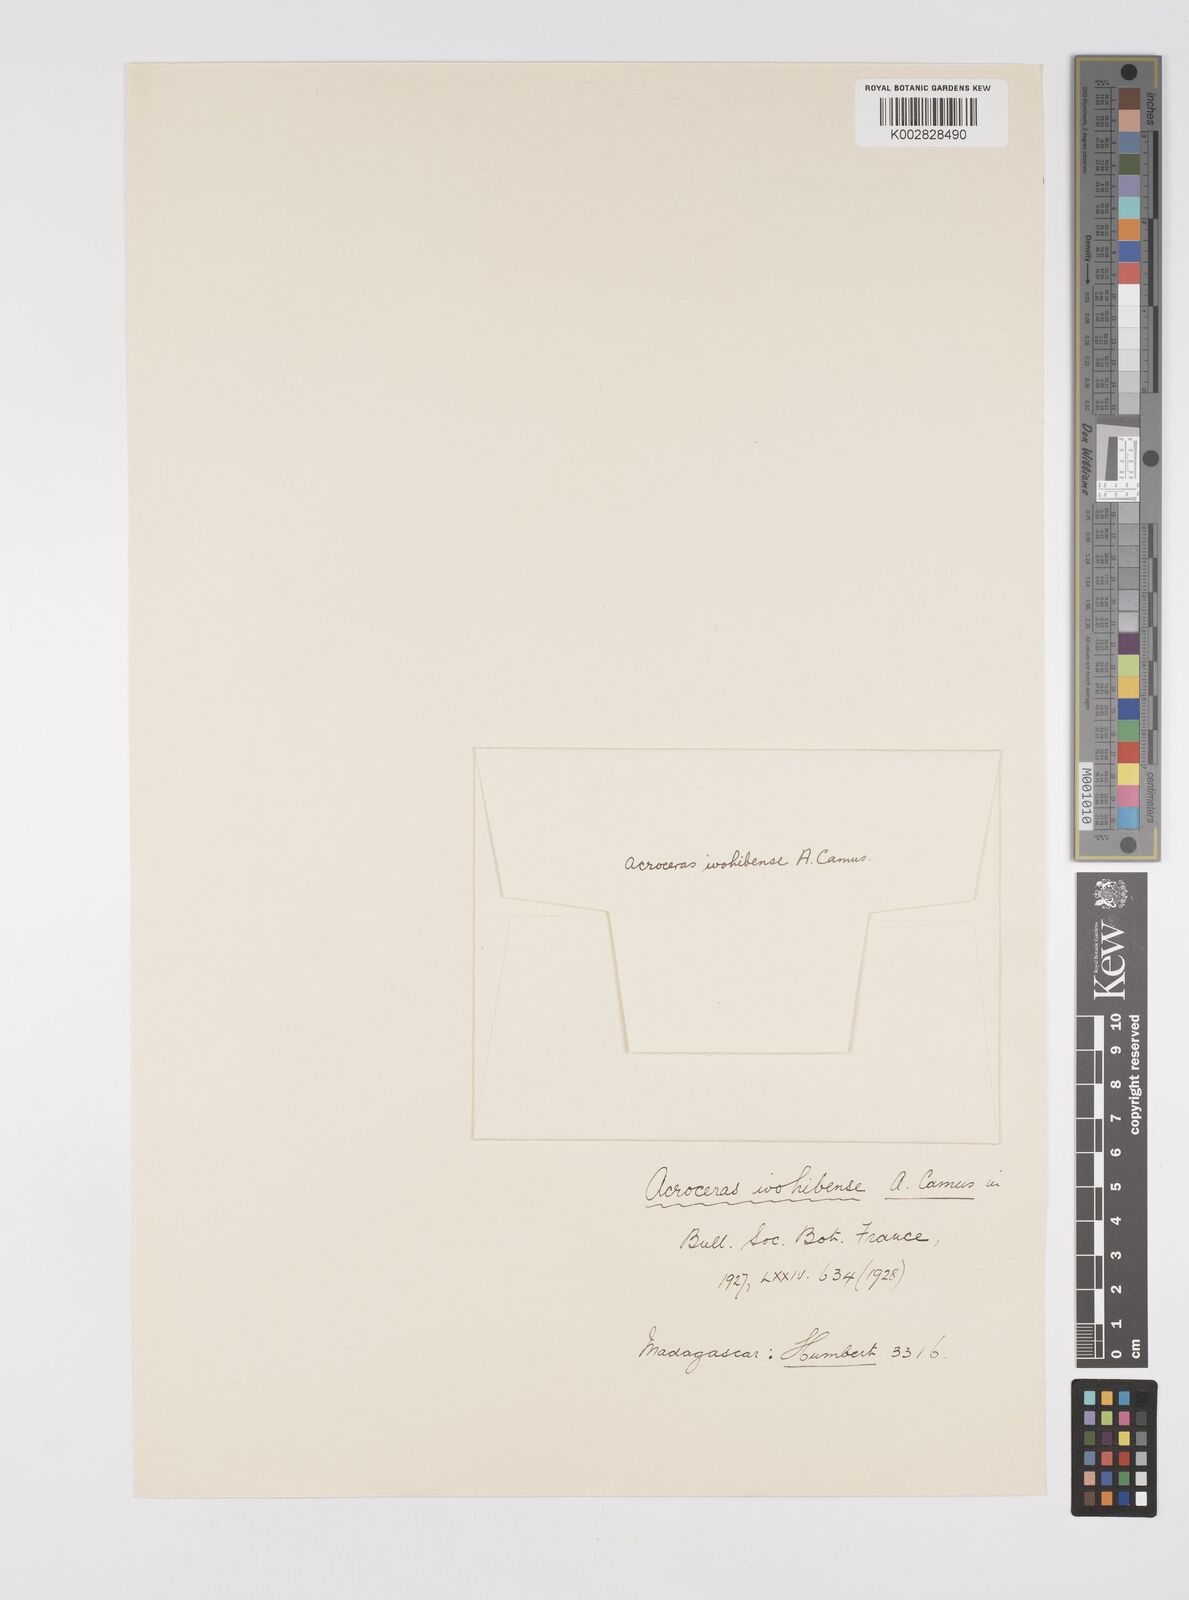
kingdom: Plantae
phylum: Tracheophyta
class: Liliopsida
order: Poales
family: Poaceae
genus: Acroceras
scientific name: Acroceras ivohibense
